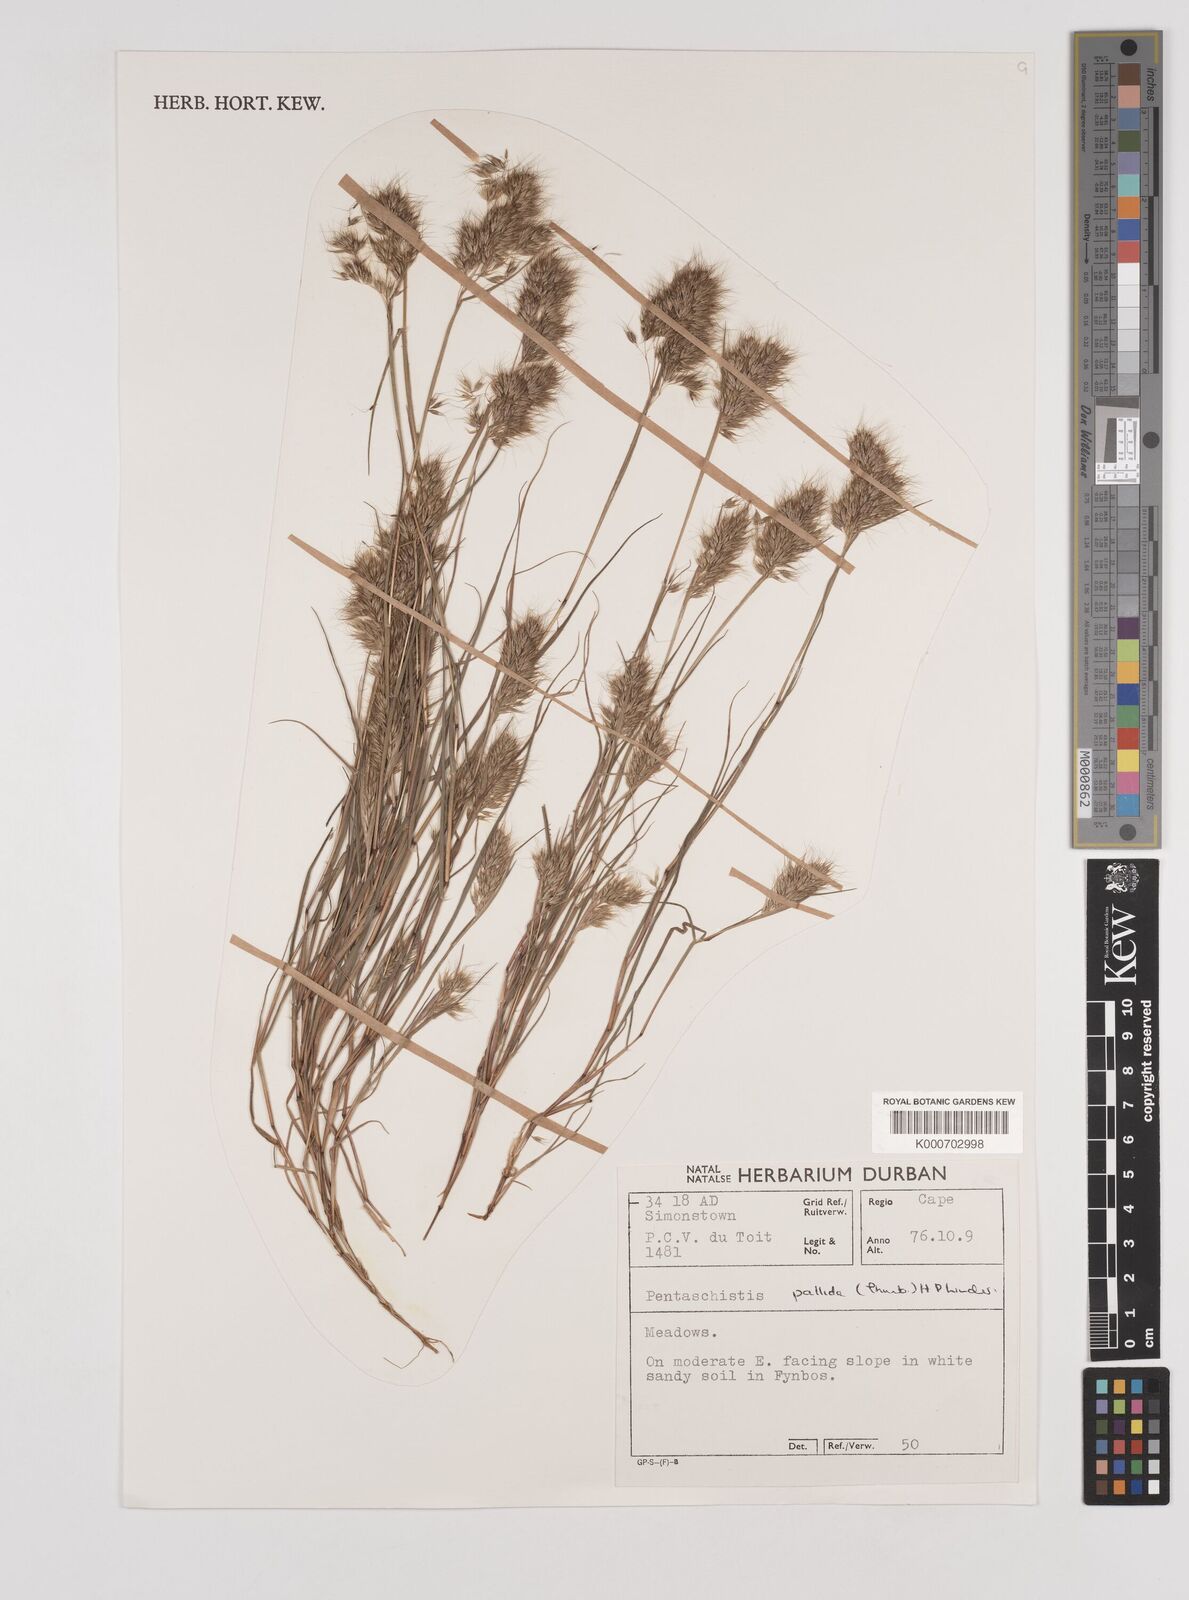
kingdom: Plantae
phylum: Tracheophyta
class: Liliopsida
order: Poales
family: Poaceae
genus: Pentameris
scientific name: Pentameris pallida
